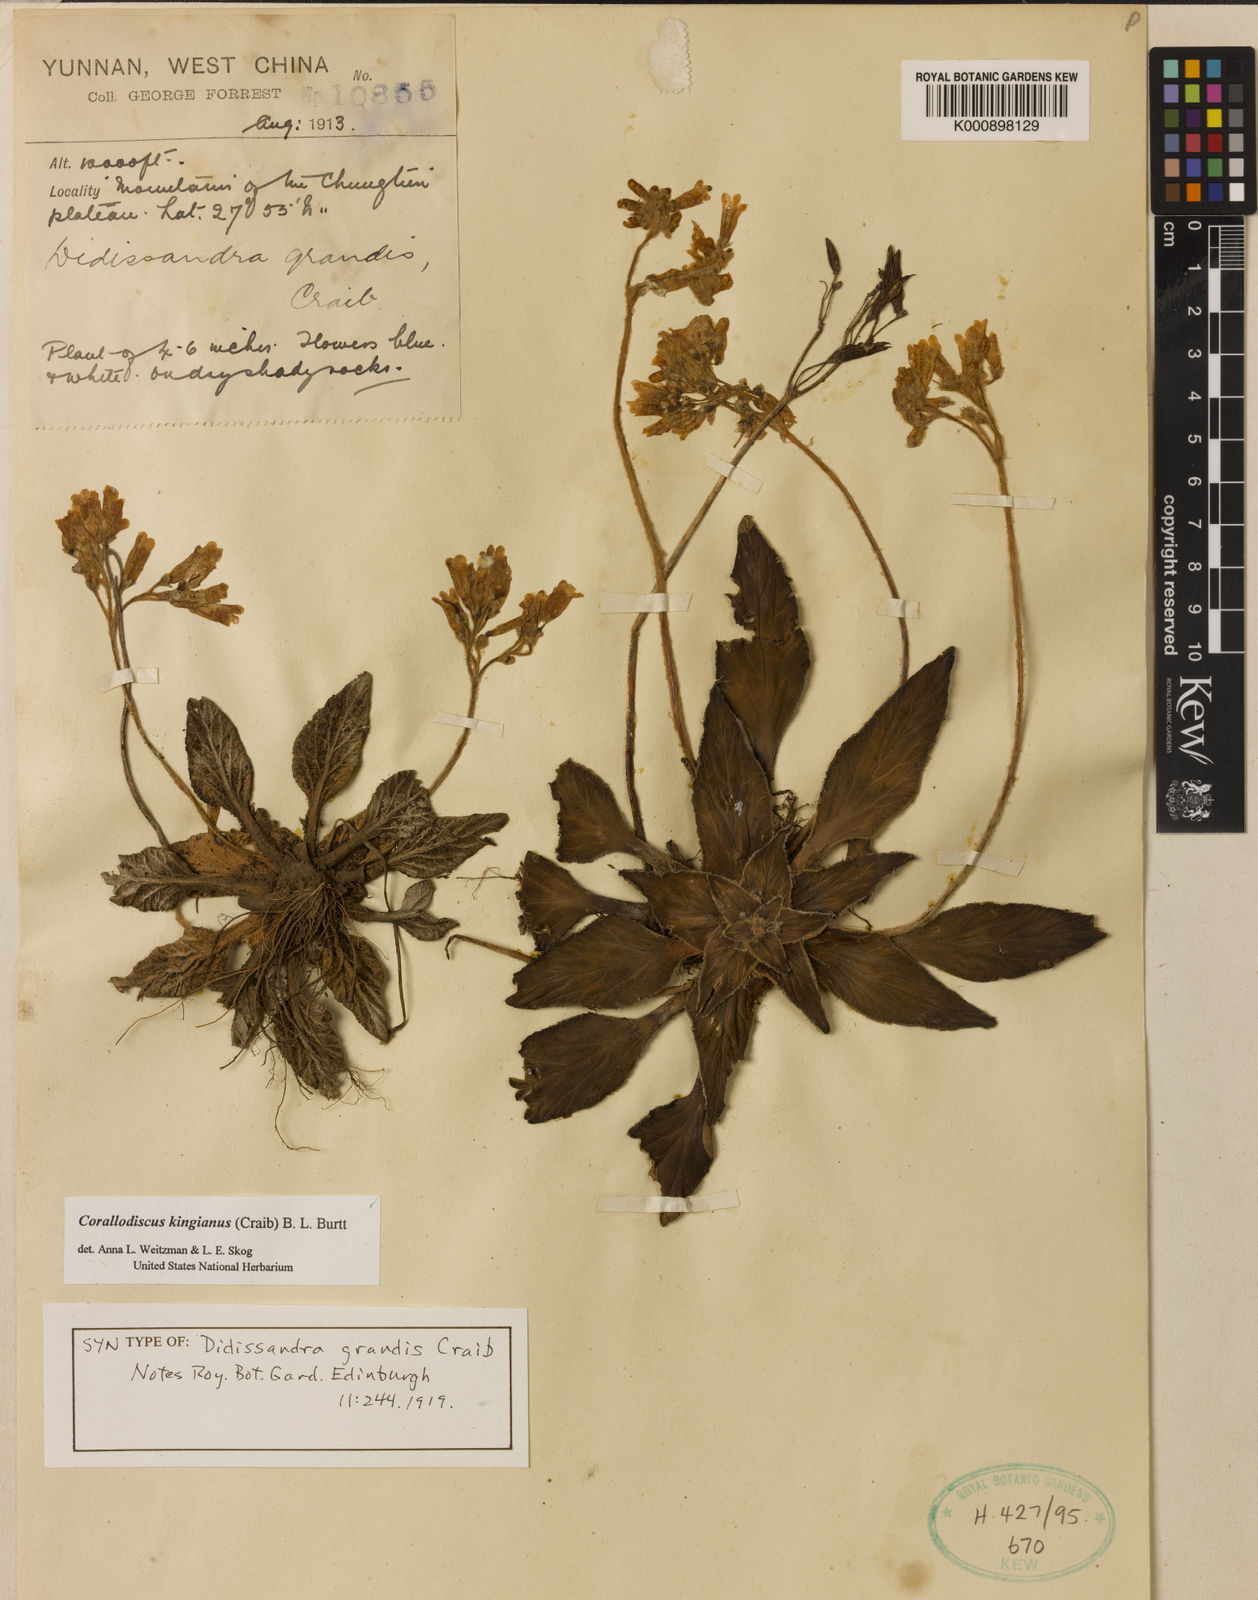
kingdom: Plantae
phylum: Tracheophyta
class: Magnoliopsida
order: Lamiales
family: Gesneriaceae
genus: Corallodiscus
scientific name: Corallodiscus kingianus
